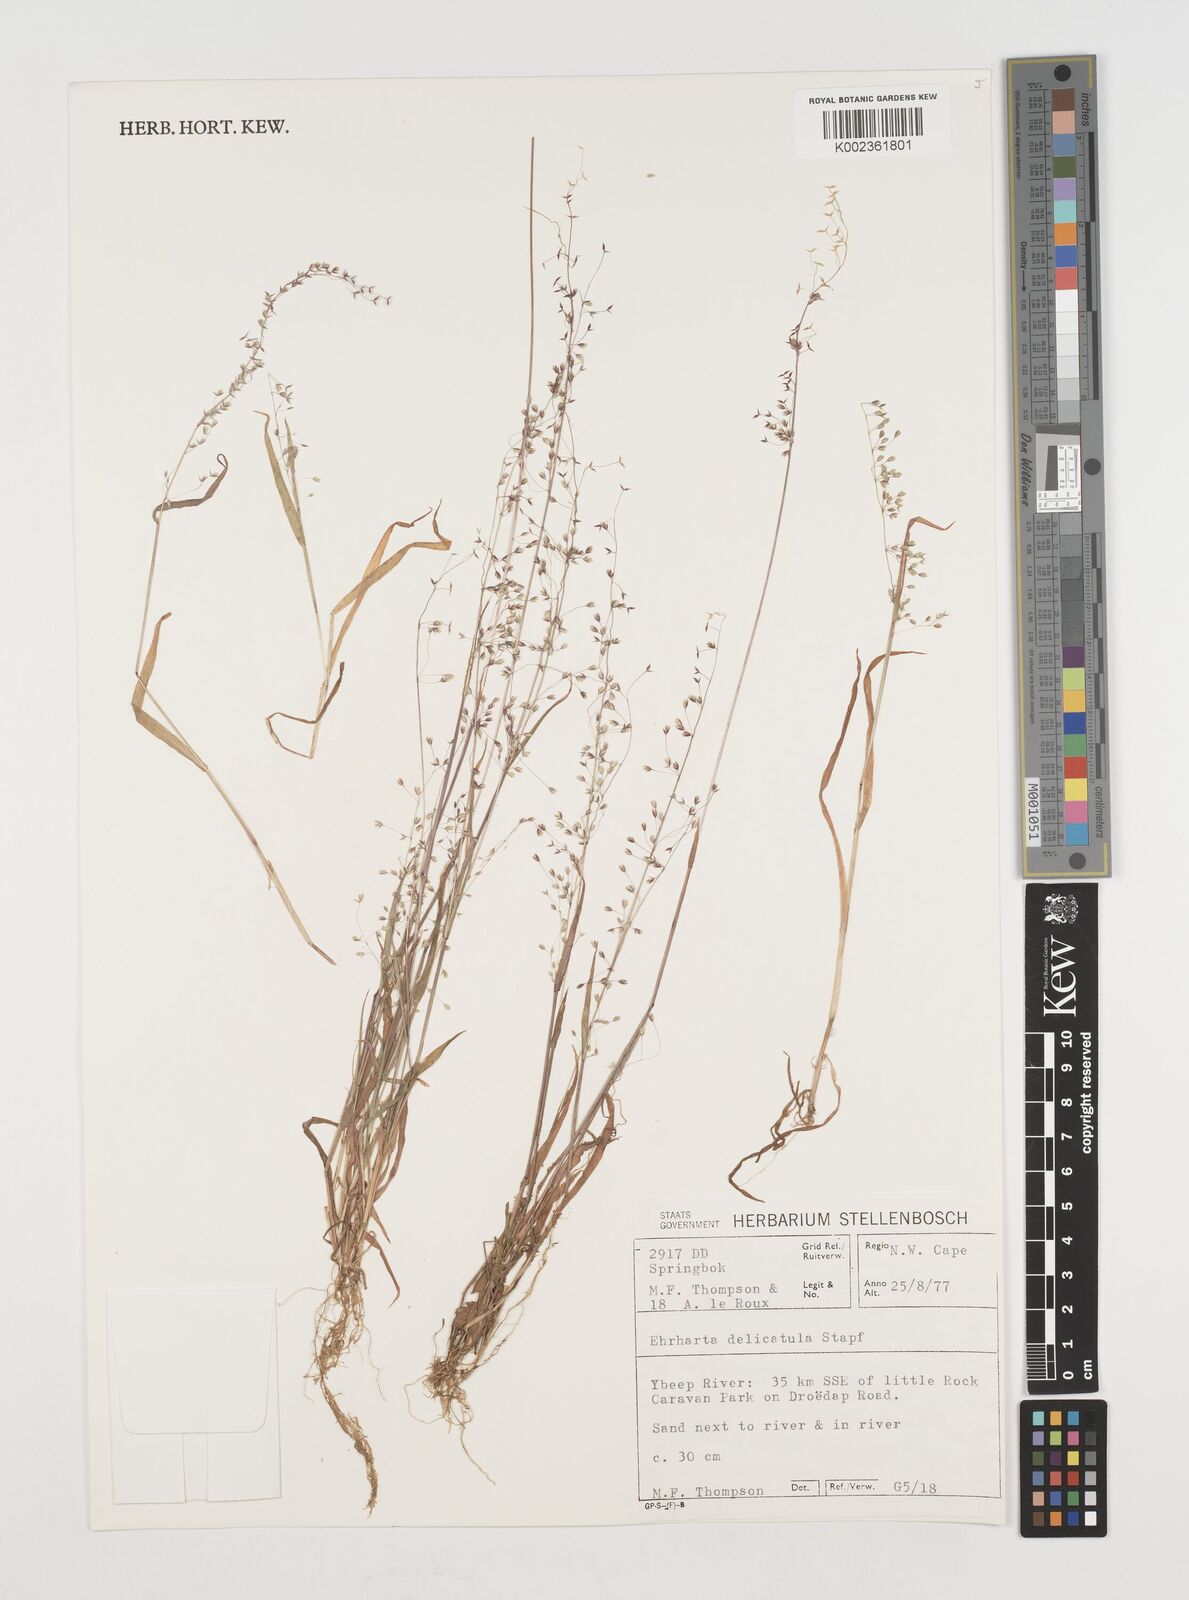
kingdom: Plantae
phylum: Tracheophyta
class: Liliopsida
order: Poales
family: Poaceae
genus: Ehrharta
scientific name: Ehrharta delicatula
